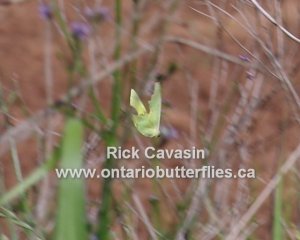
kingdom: Animalia
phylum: Arthropoda
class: Insecta
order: Lepidoptera
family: Pieridae
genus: Phoebis
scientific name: Phoebis sennae
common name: Cloudless Sulphur
